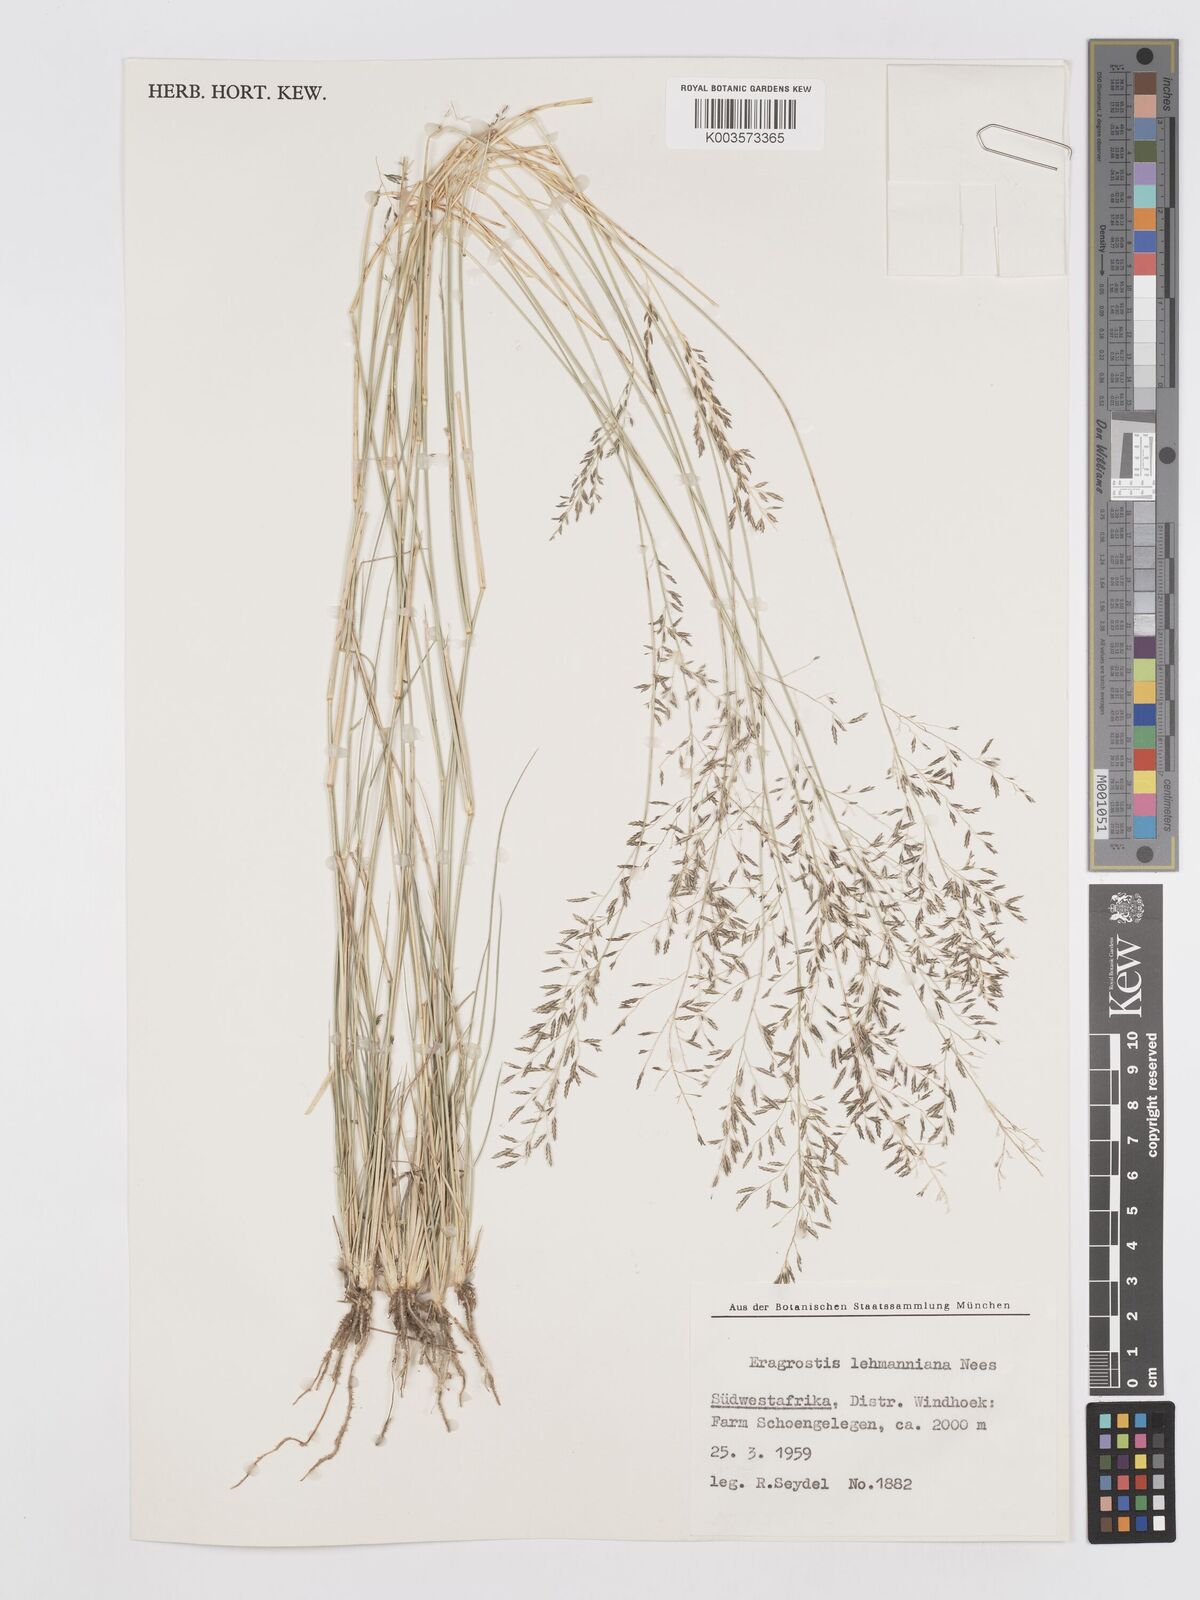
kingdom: Plantae
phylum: Tracheophyta
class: Liliopsida
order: Poales
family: Poaceae
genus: Eragrostis
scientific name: Eragrostis lehmanniana
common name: Lehmann lovegrass
